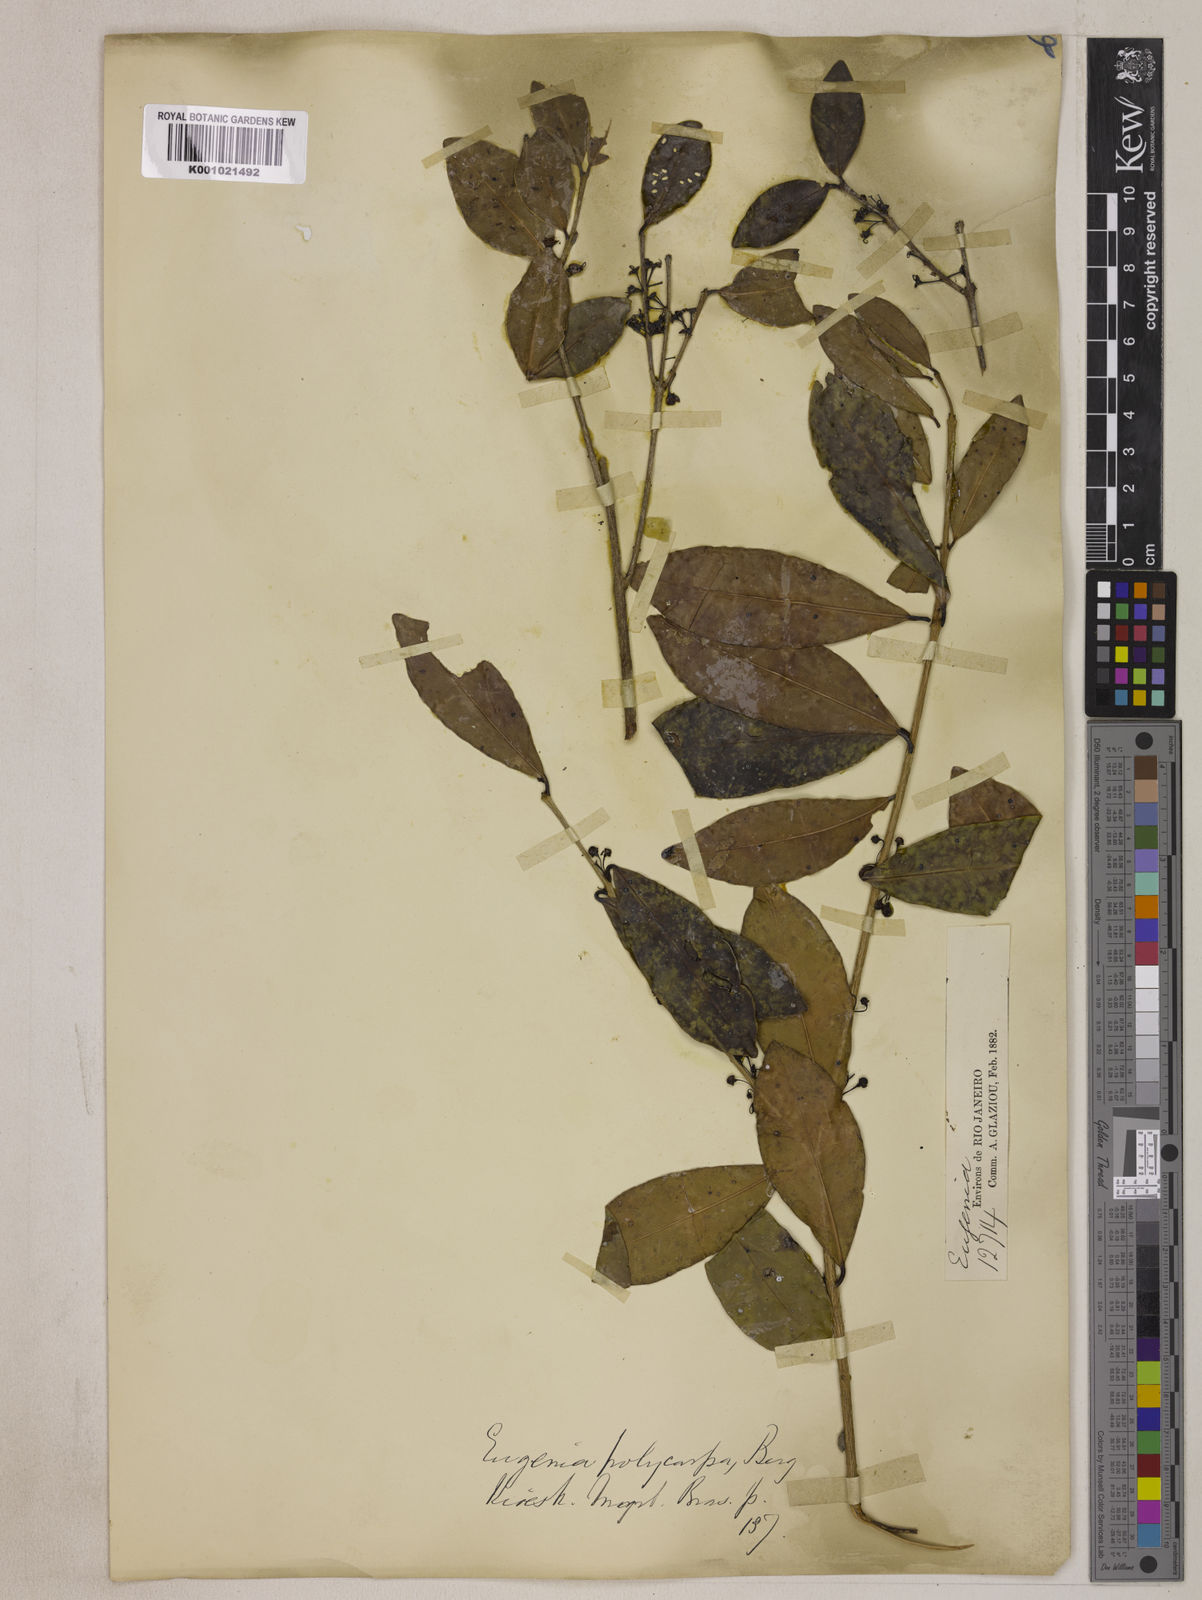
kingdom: Plantae
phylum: Tracheophyta
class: Magnoliopsida
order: Myrtales
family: Myrtaceae
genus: Eugenia
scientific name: Eugenia hiemalis
